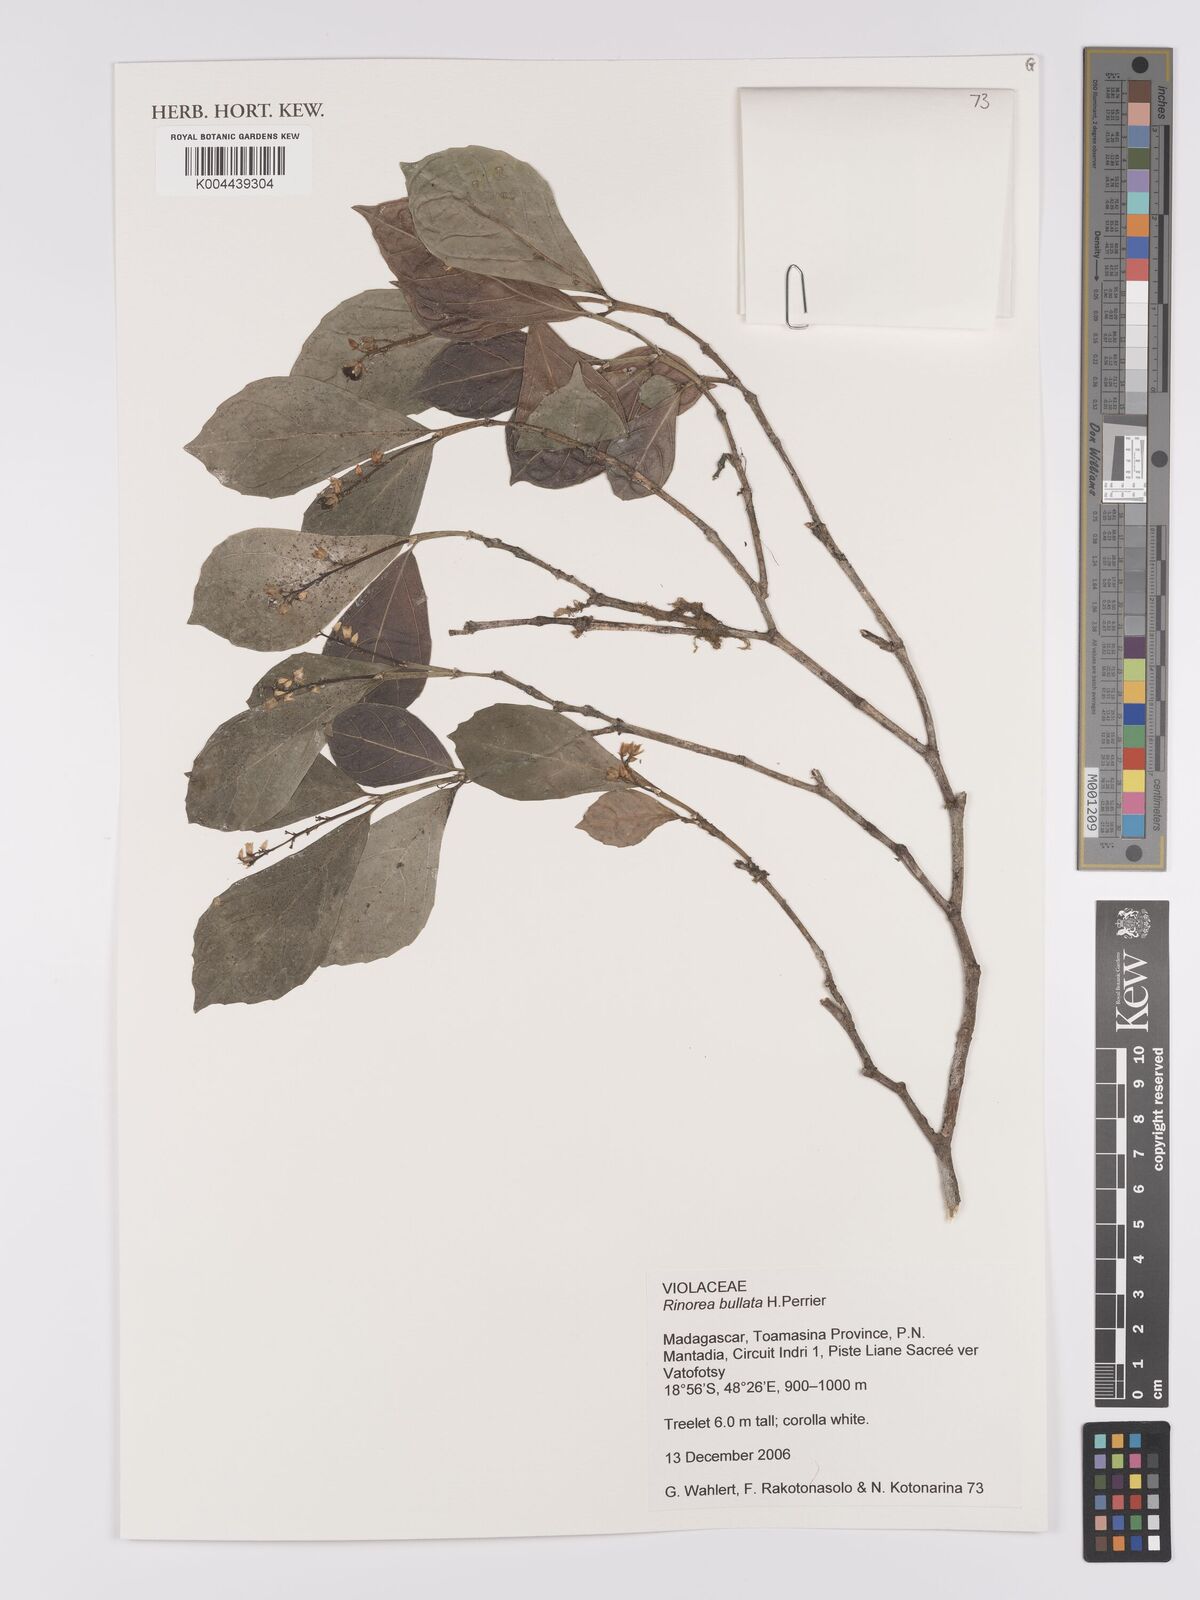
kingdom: Plantae
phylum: Tracheophyta
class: Magnoliopsida
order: Malpighiales
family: Violaceae
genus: Rinorea
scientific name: Rinorea bullata
